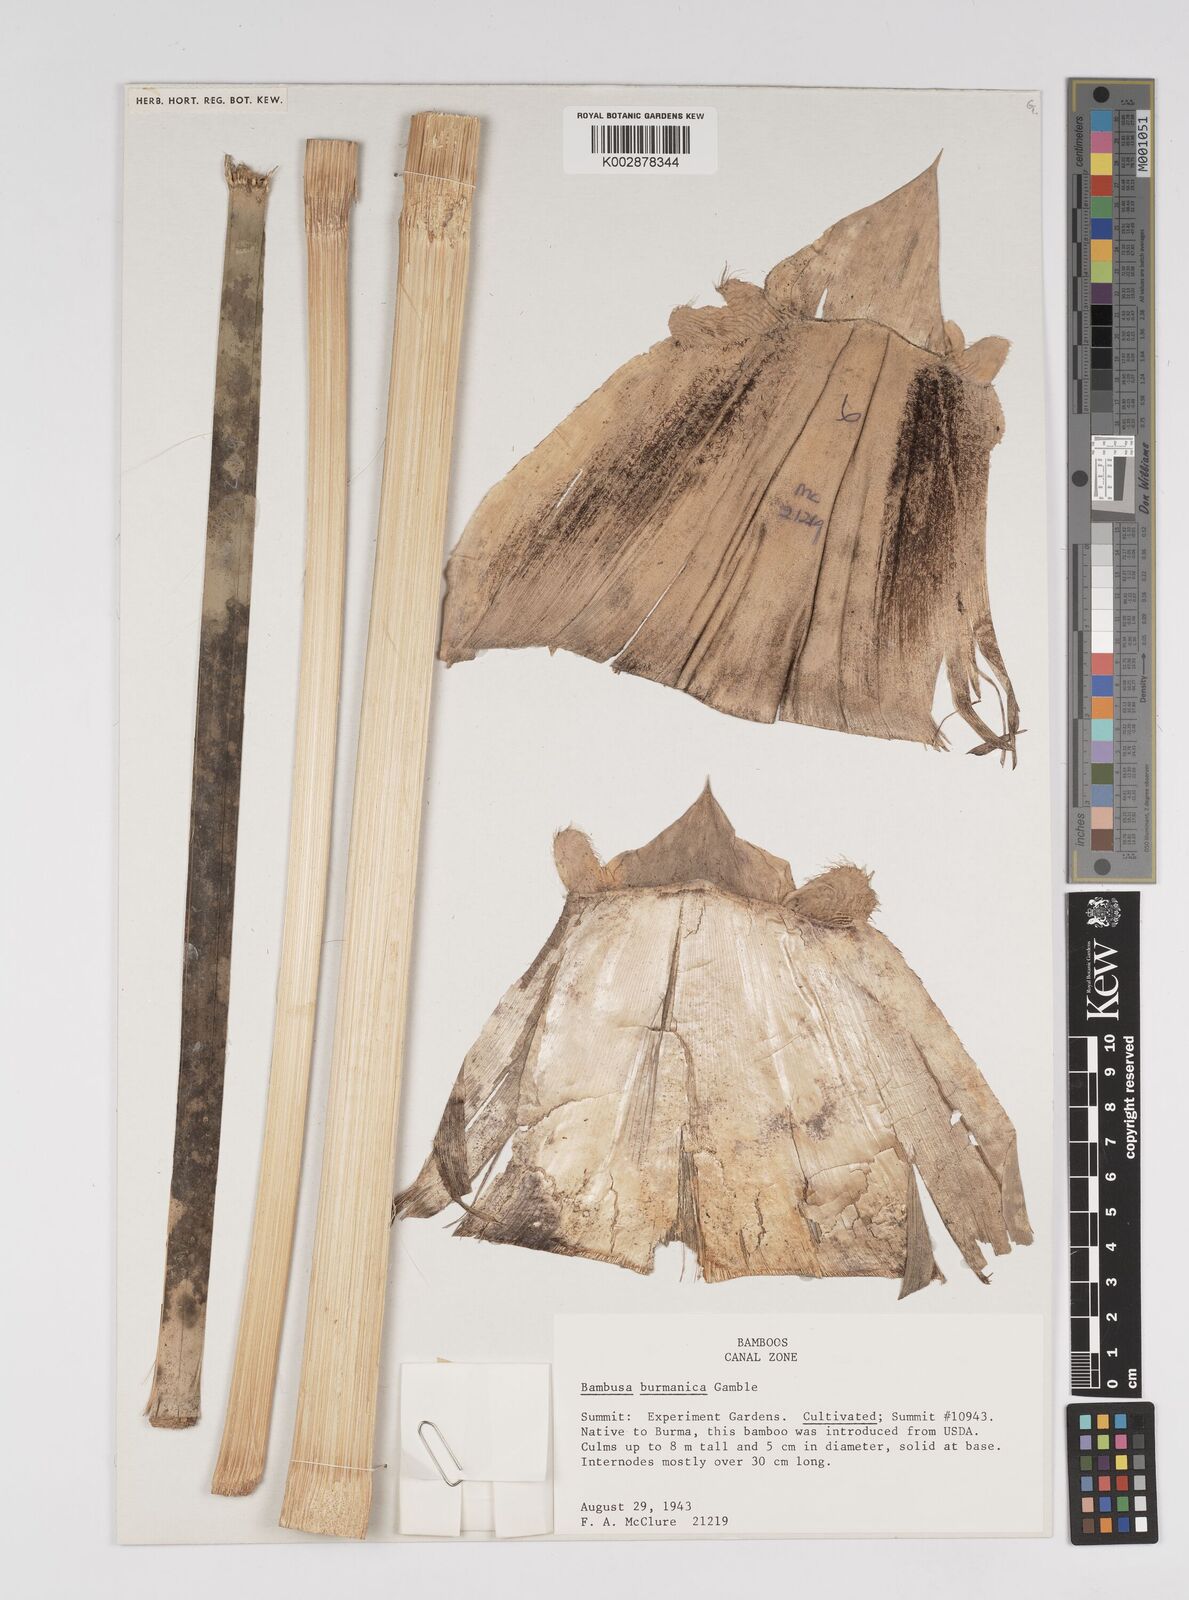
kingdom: Plantae
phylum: Tracheophyta
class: Liliopsida
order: Poales
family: Poaceae
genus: Bambusa
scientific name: Bambusa burmanica
